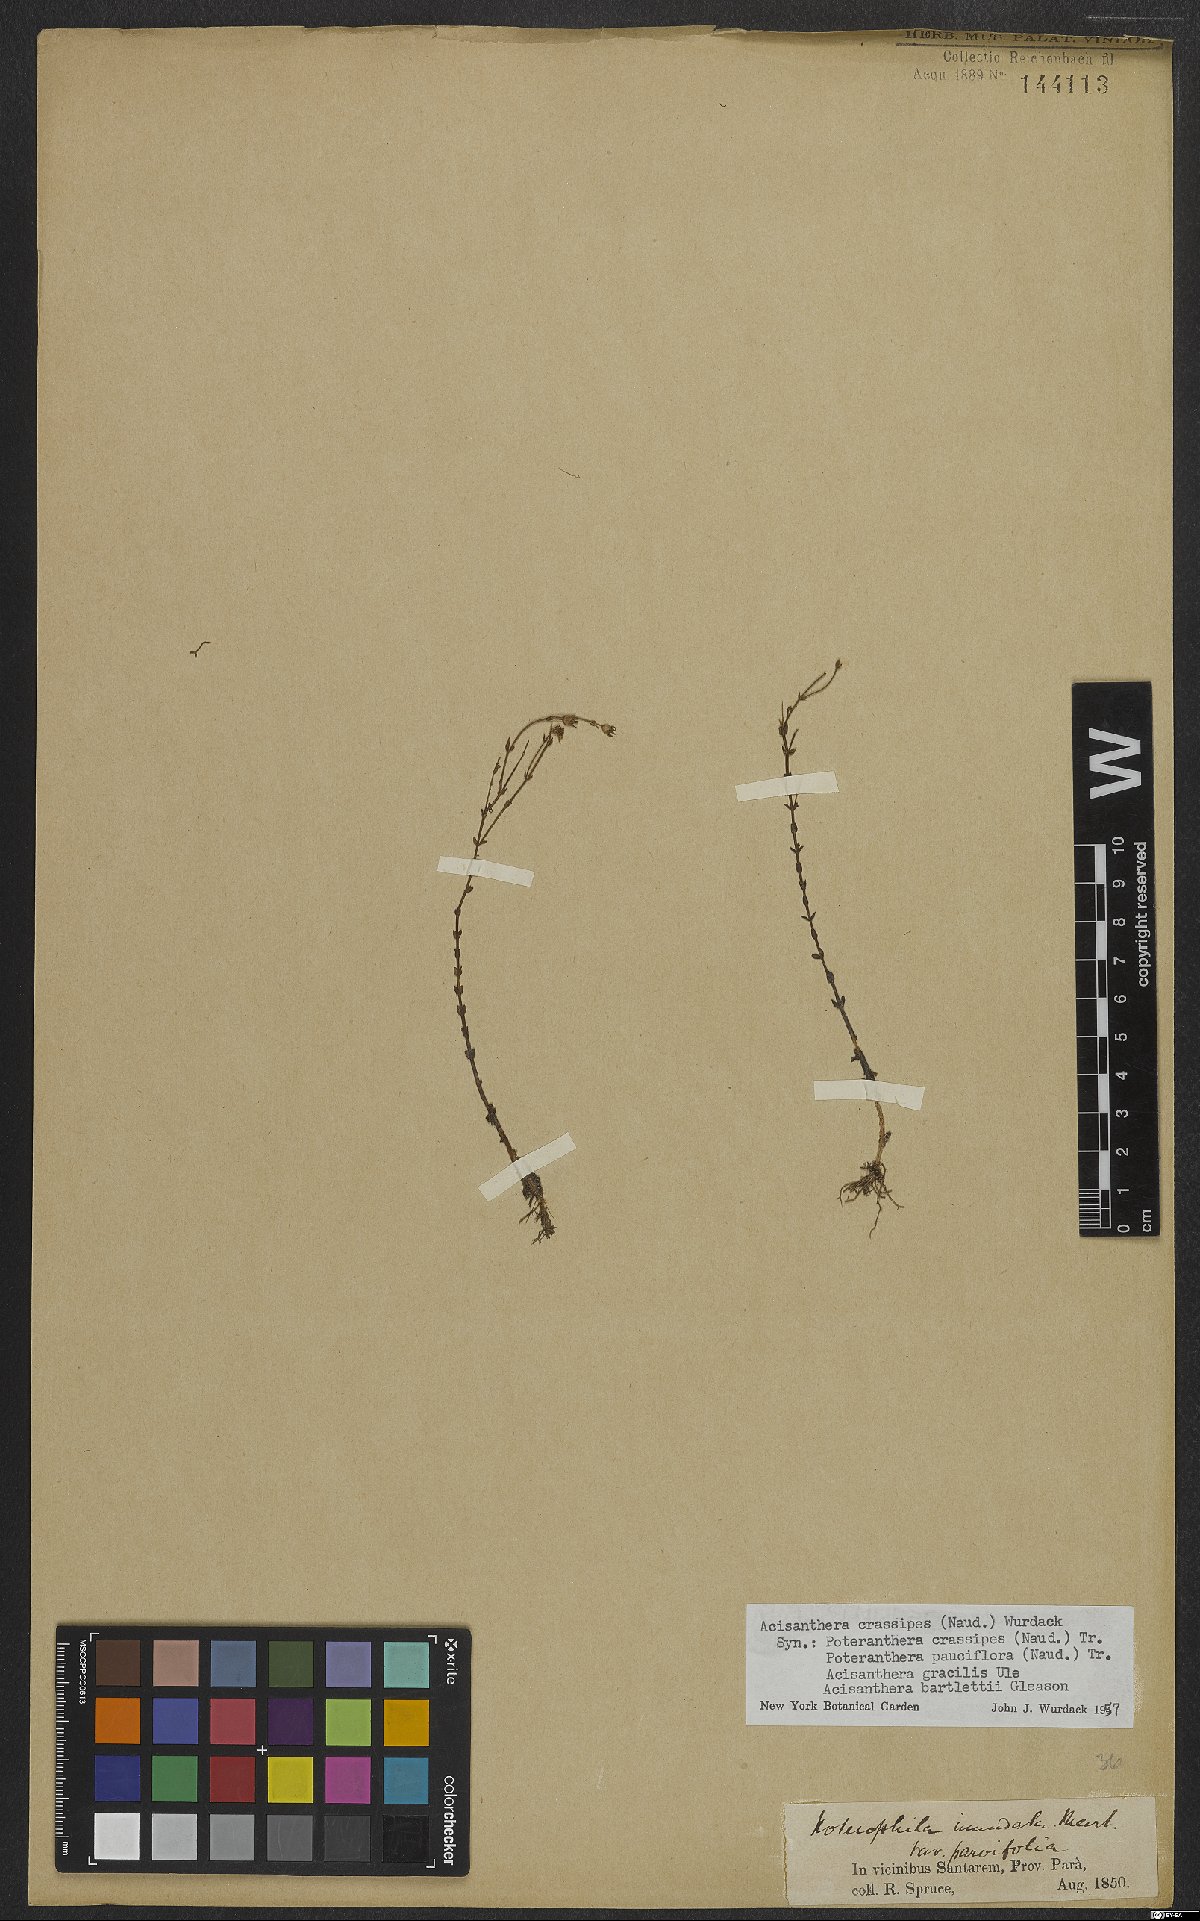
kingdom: Plantae
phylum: Tracheophyta
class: Magnoliopsida
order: Myrtales
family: Melastomataceae
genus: Noterophila
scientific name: Noterophila crassipes
